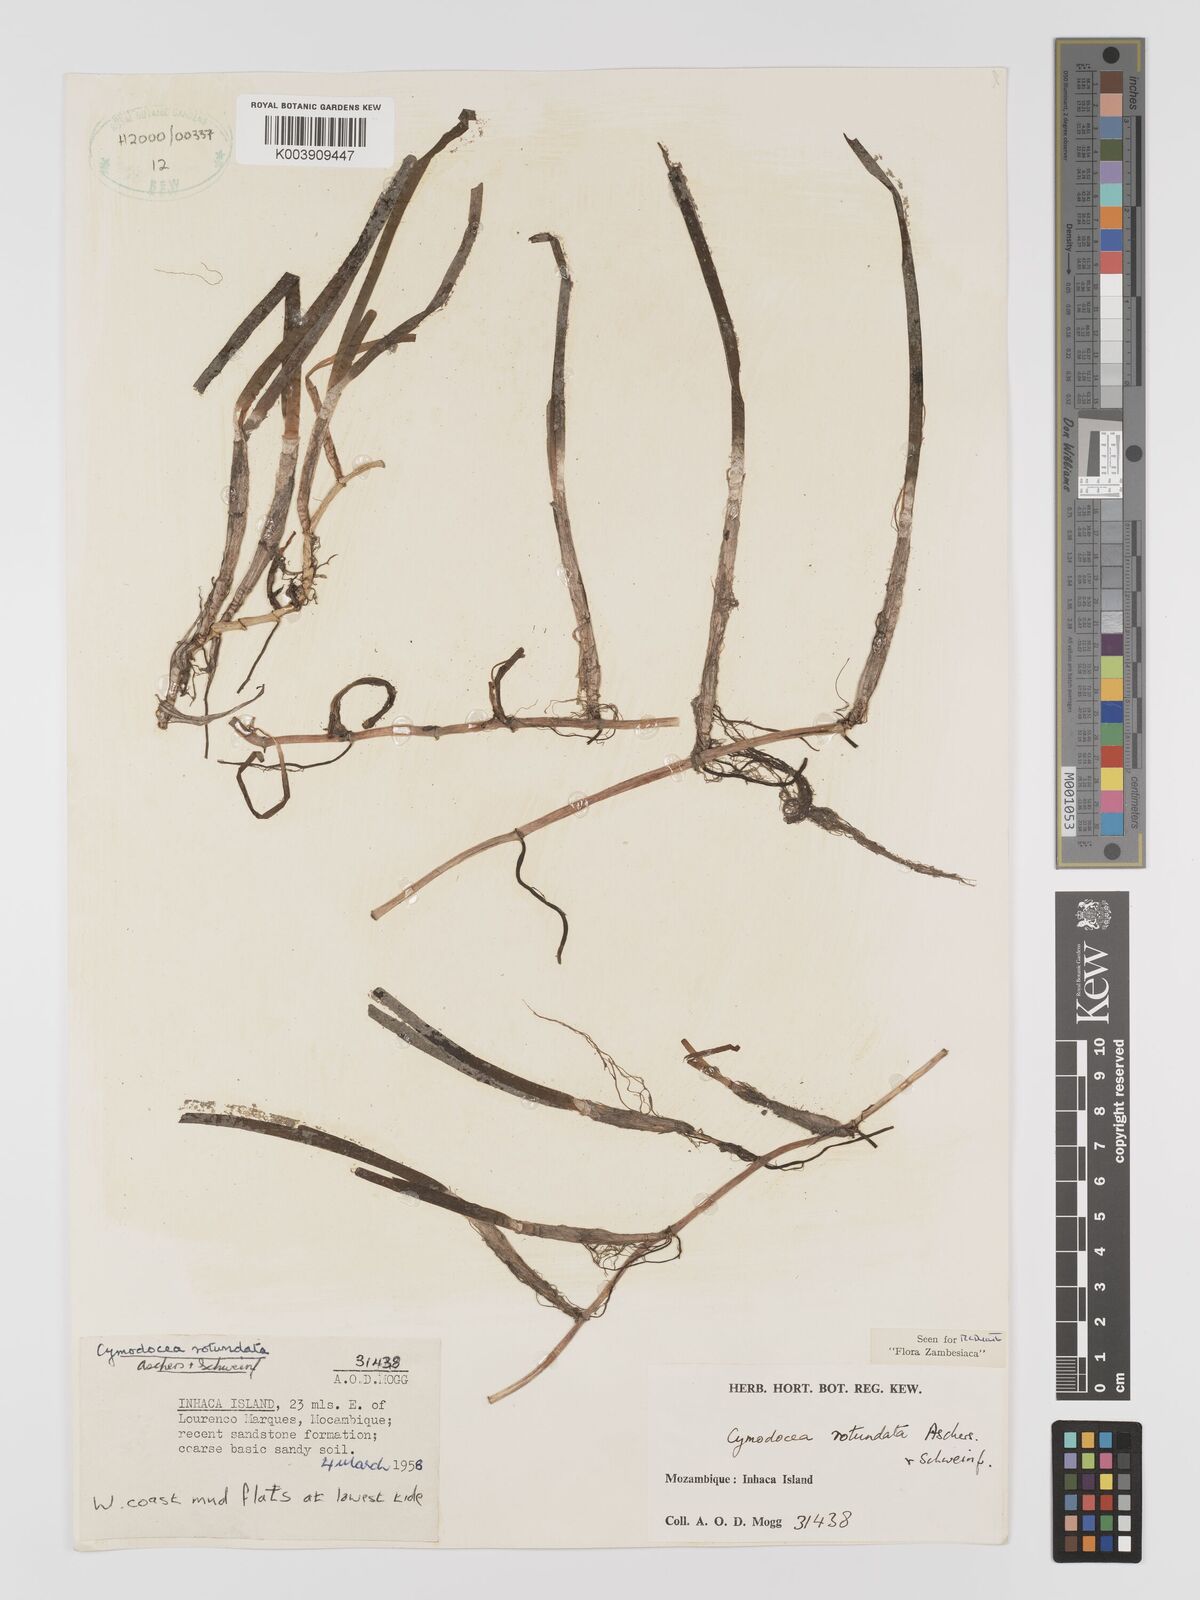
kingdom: Plantae
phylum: Tracheophyta
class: Liliopsida
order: Alismatales
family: Cymodoceaceae
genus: Cymodocea
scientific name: Cymodocea rotundata
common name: Species code: cr
